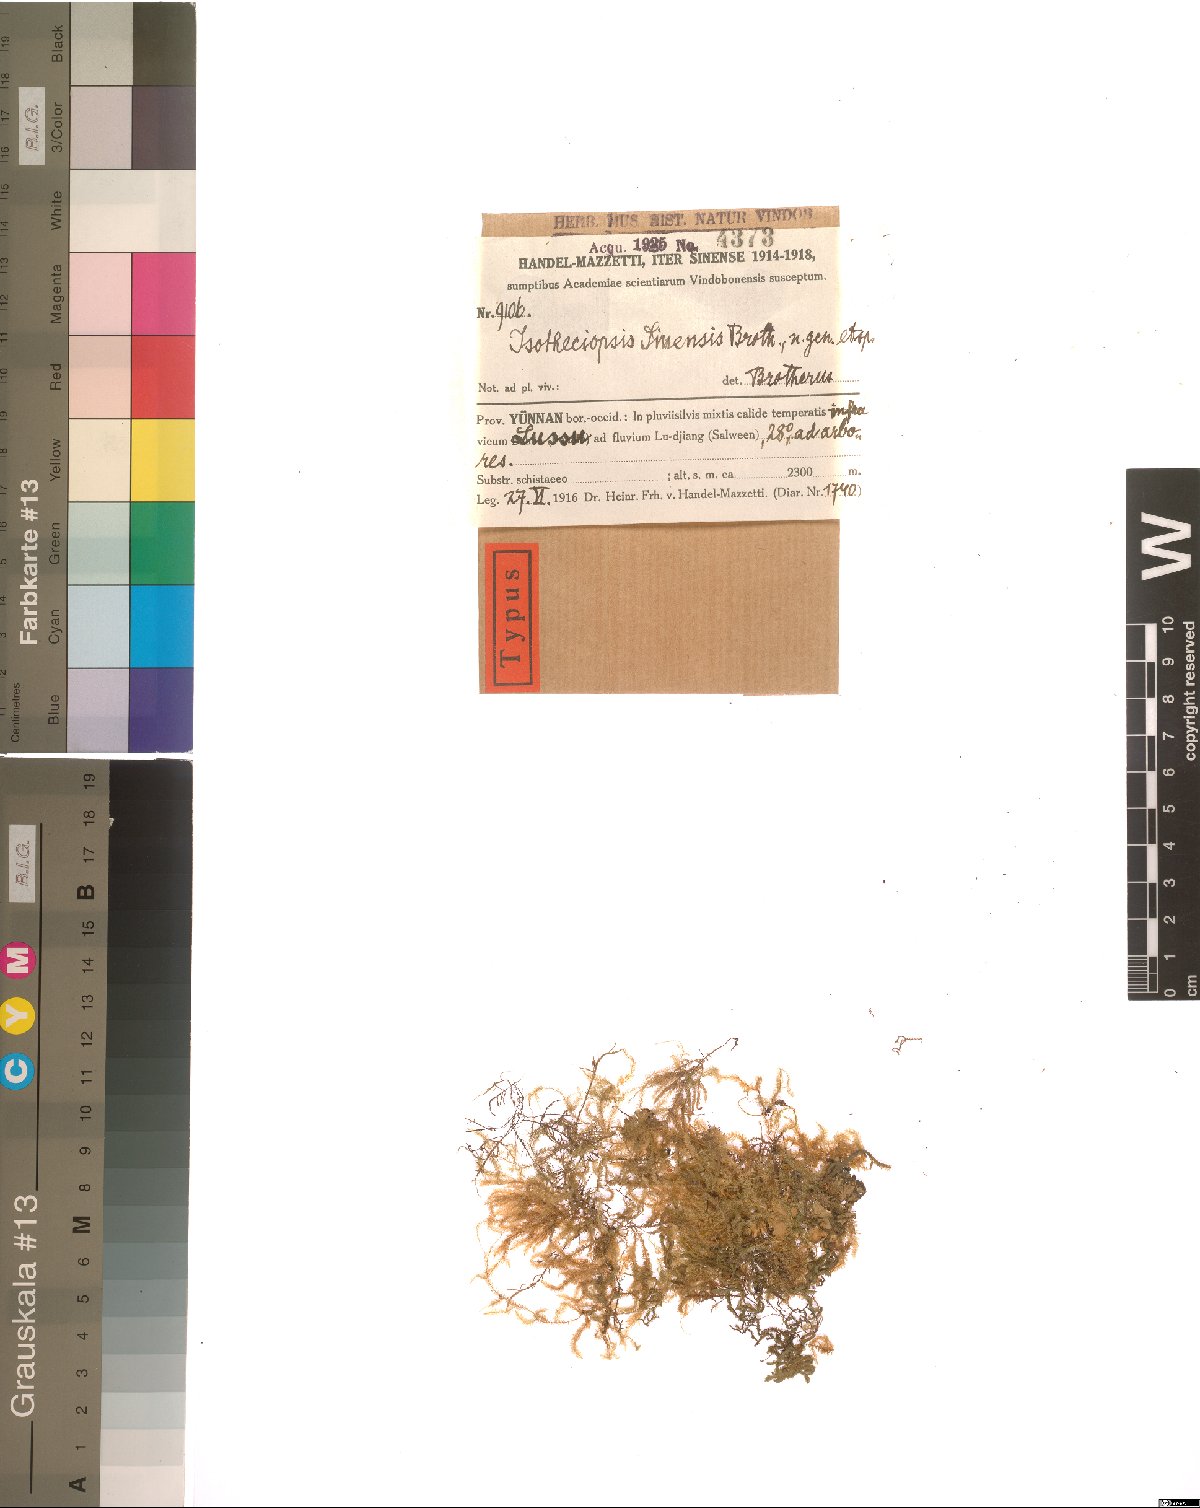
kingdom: Plantae
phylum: Bryophyta
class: Bryopsida
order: Hypnales
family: Lembophyllaceae
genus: Neobarbella
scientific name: Neobarbella comes
